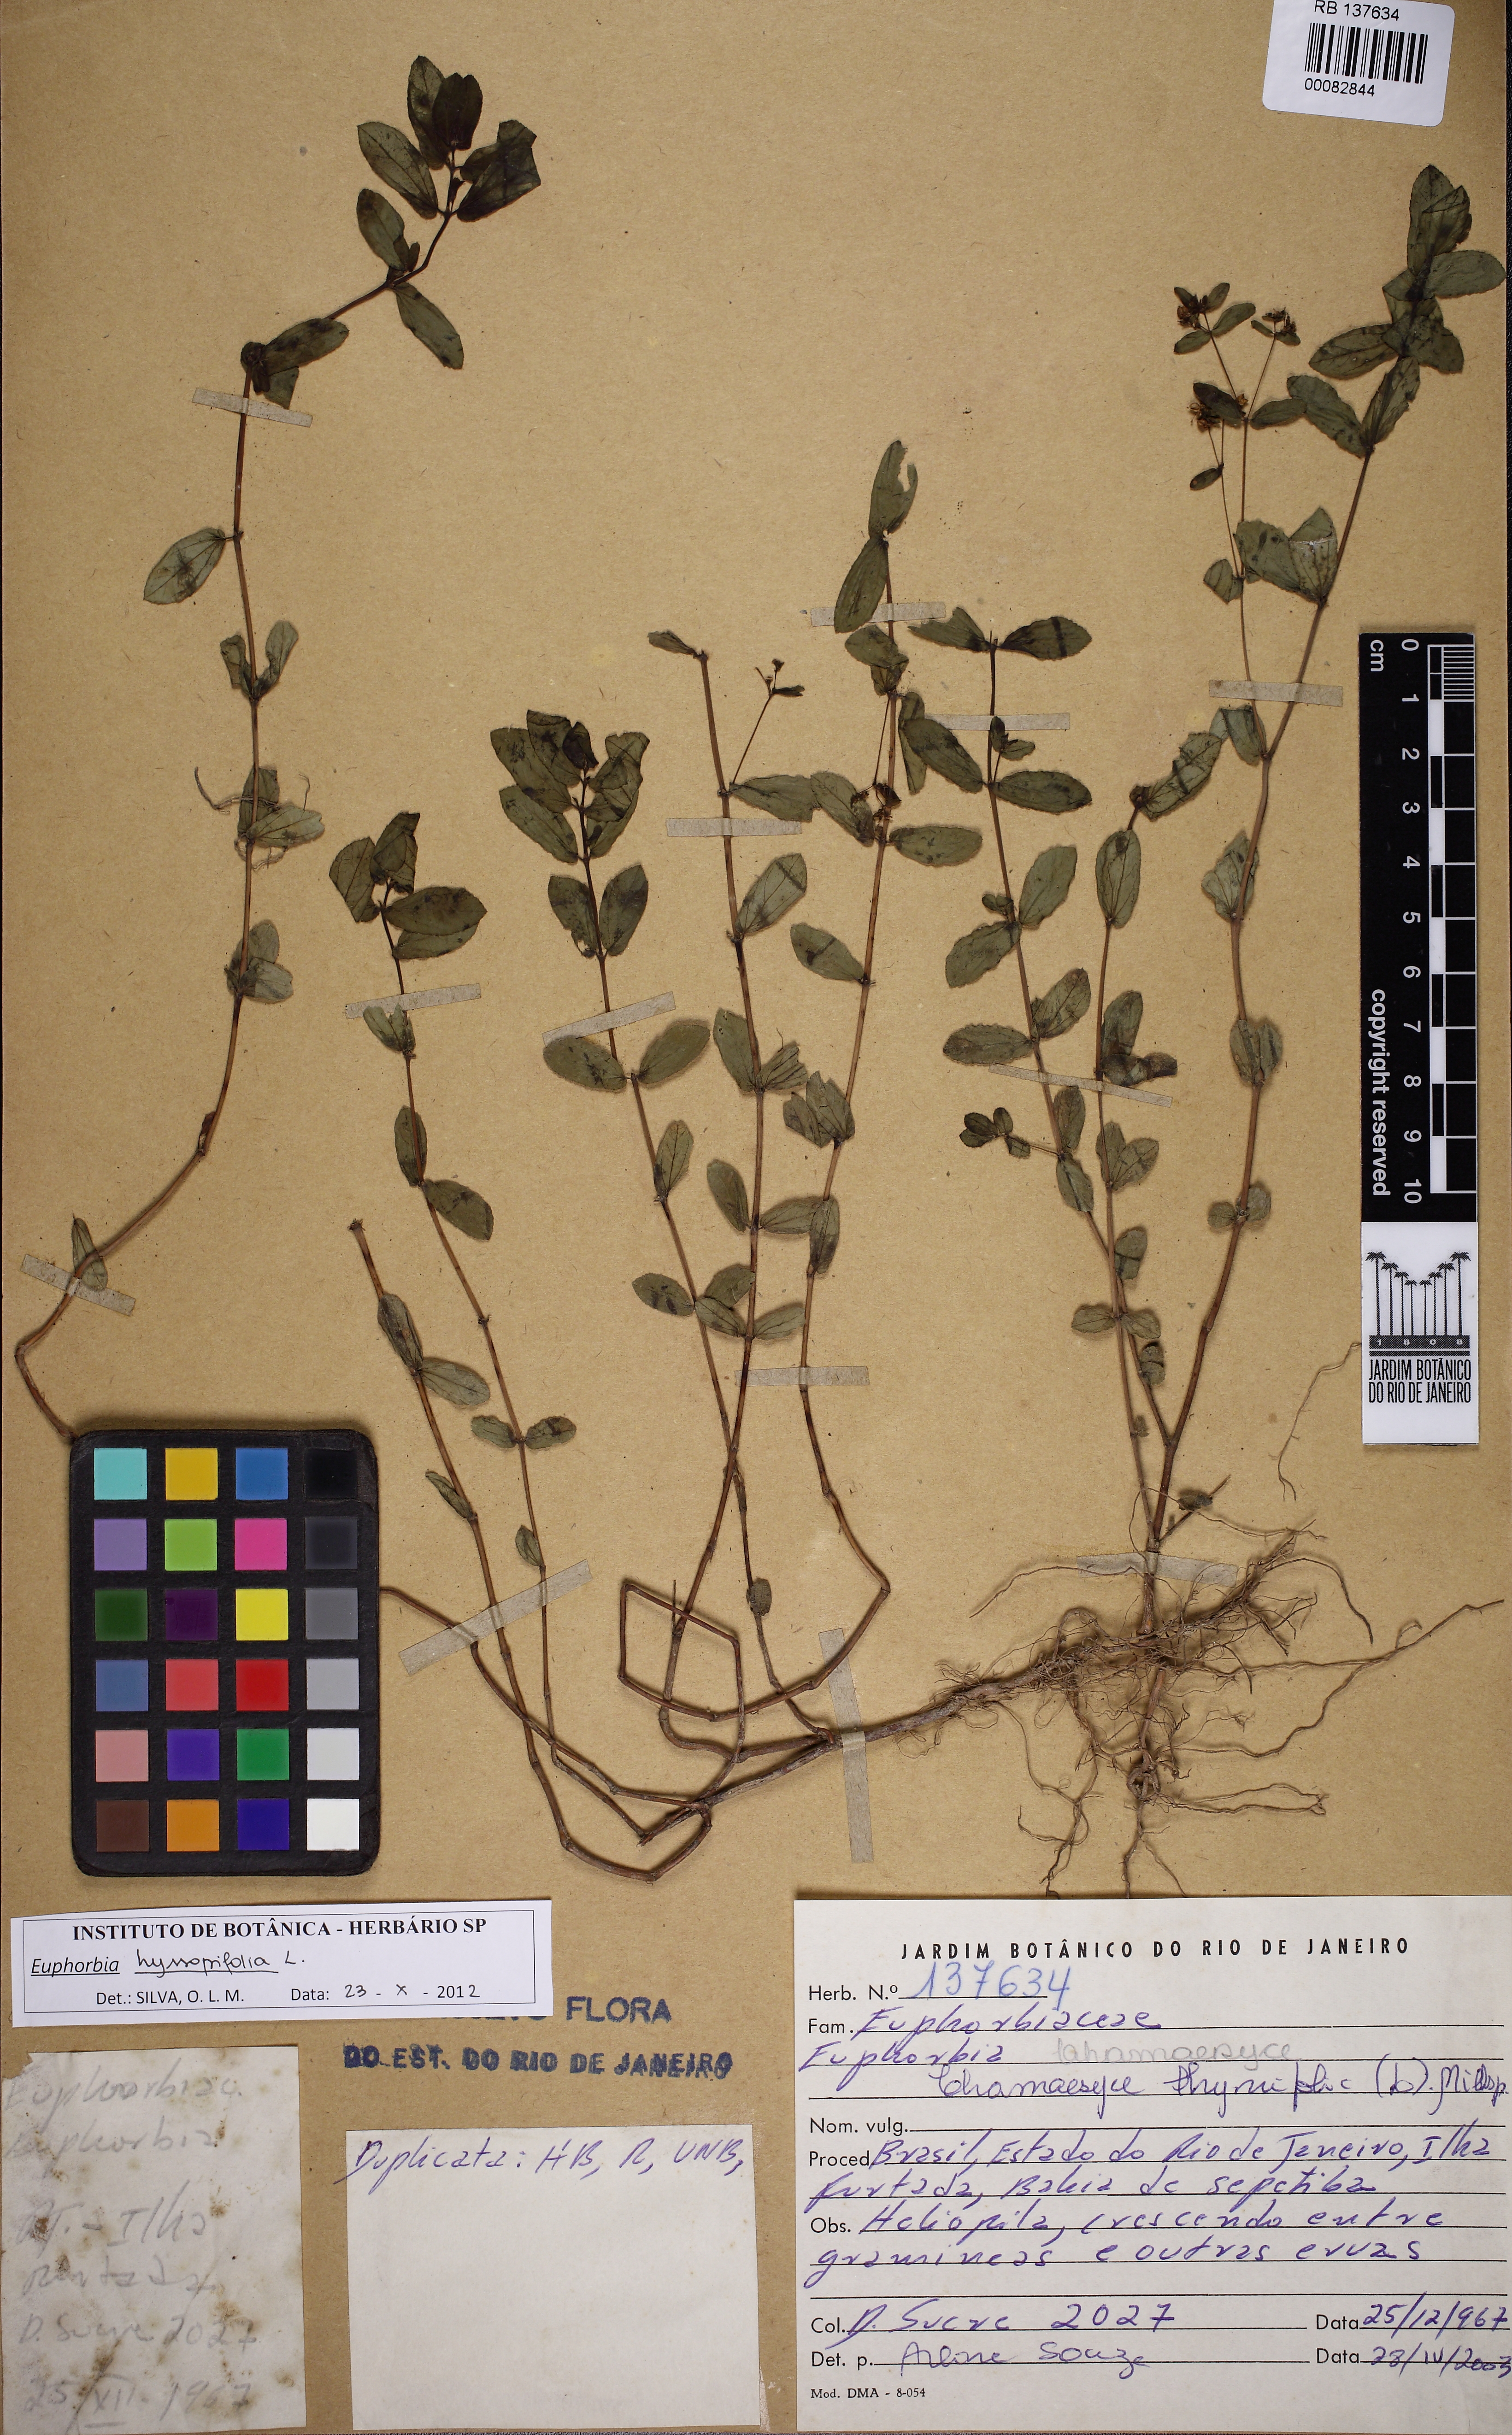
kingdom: Plantae
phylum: Tracheophyta
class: Magnoliopsida
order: Malpighiales
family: Euphorbiaceae
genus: Euphorbia
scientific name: Euphorbia hyssopifolia
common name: Hyssopleaf sandmat
